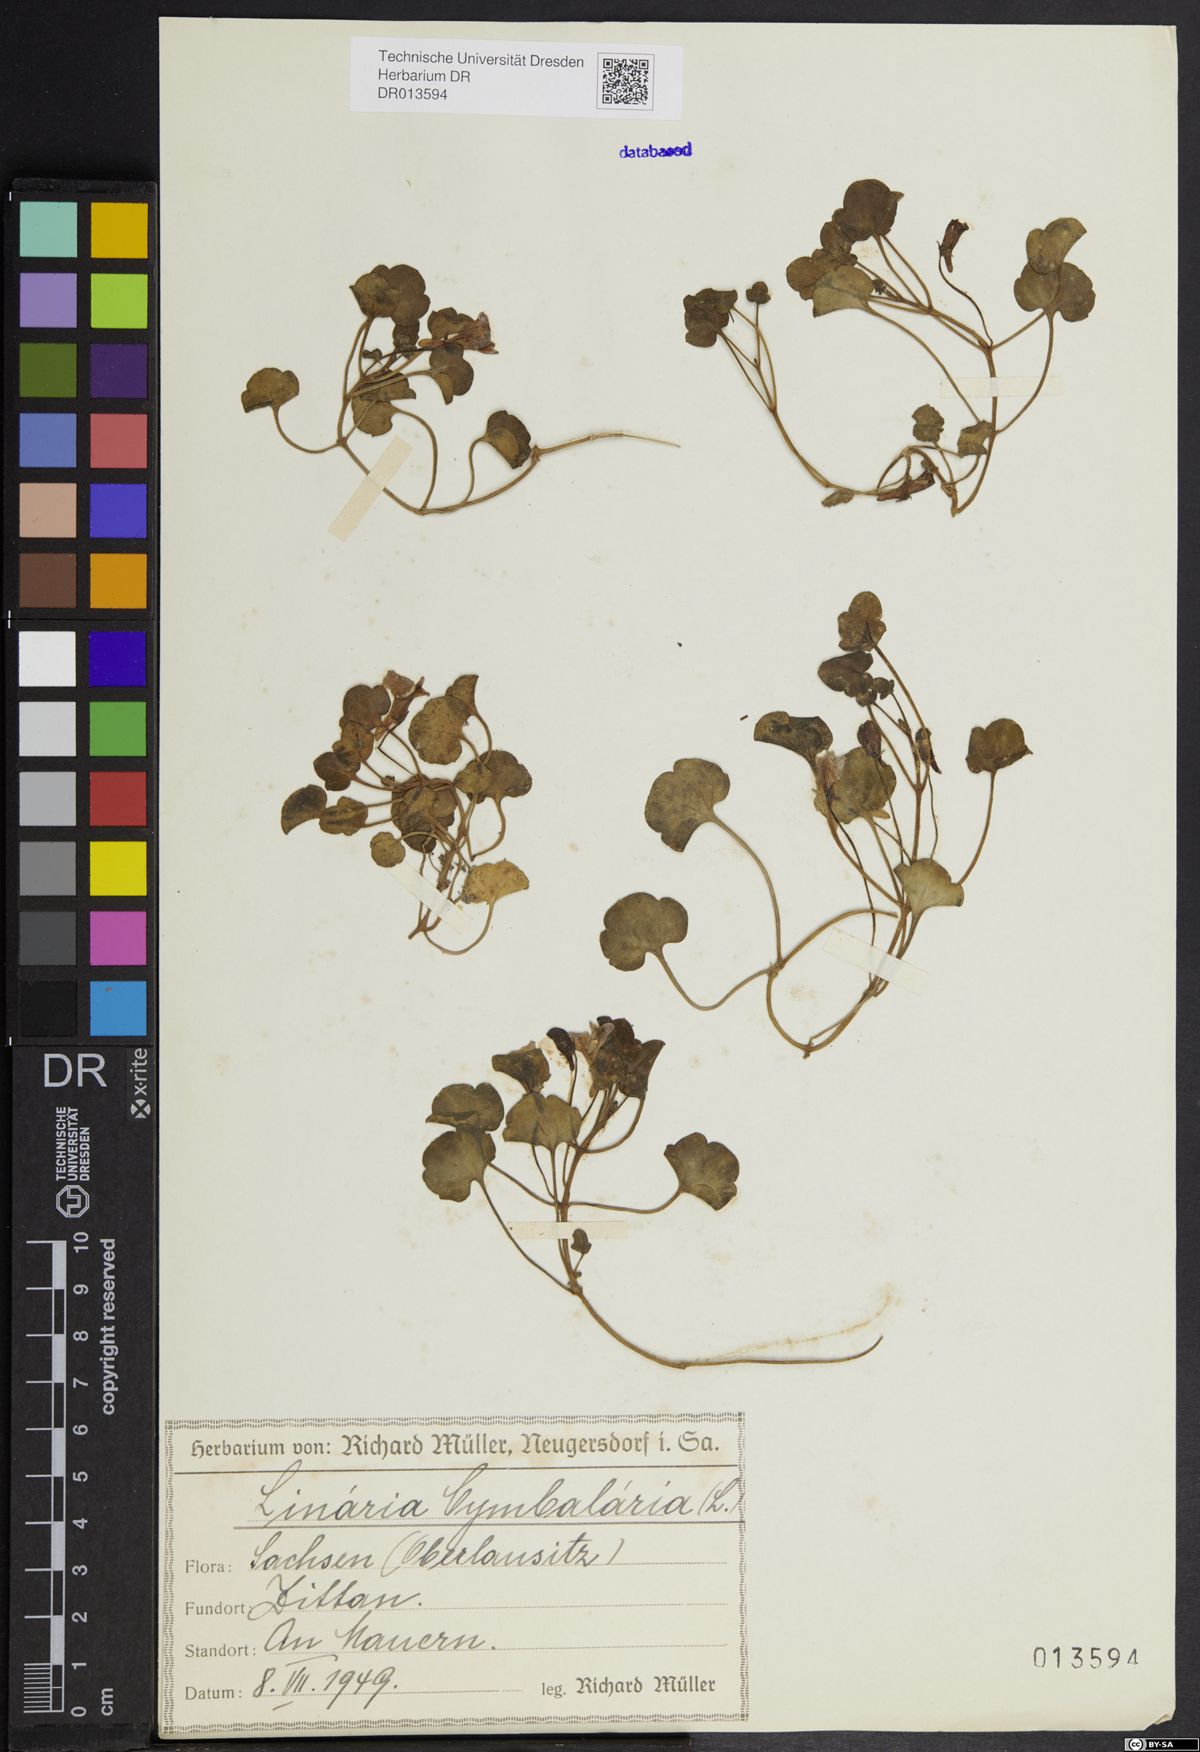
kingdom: Plantae
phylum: Tracheophyta
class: Magnoliopsida
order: Lamiales
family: Plantaginaceae
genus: Cymbalaria
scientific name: Cymbalaria muralis
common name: Ivy-leaved toadflax
